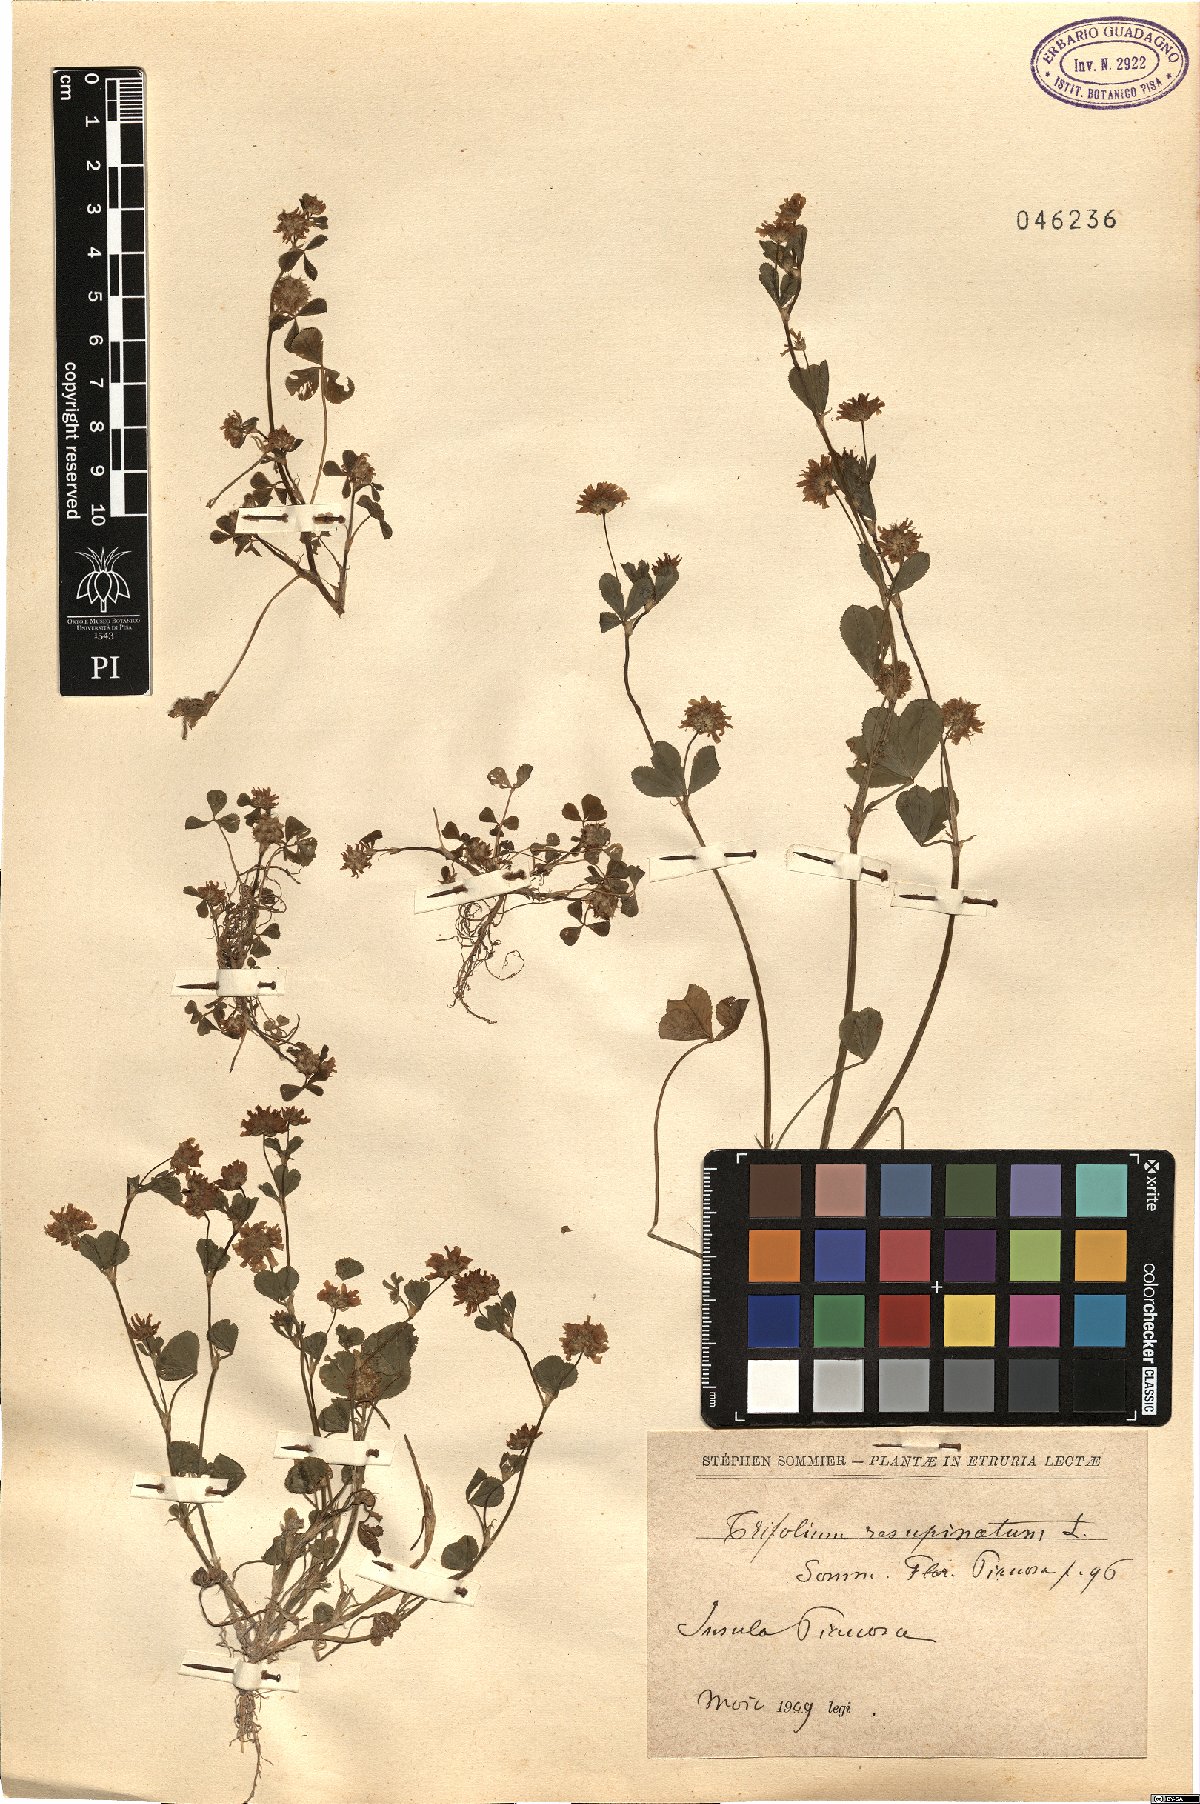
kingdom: Plantae
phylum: Tracheophyta
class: Magnoliopsida
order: Fabales
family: Fabaceae
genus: Trifolium
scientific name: Trifolium resupinatum
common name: Reversed clover
